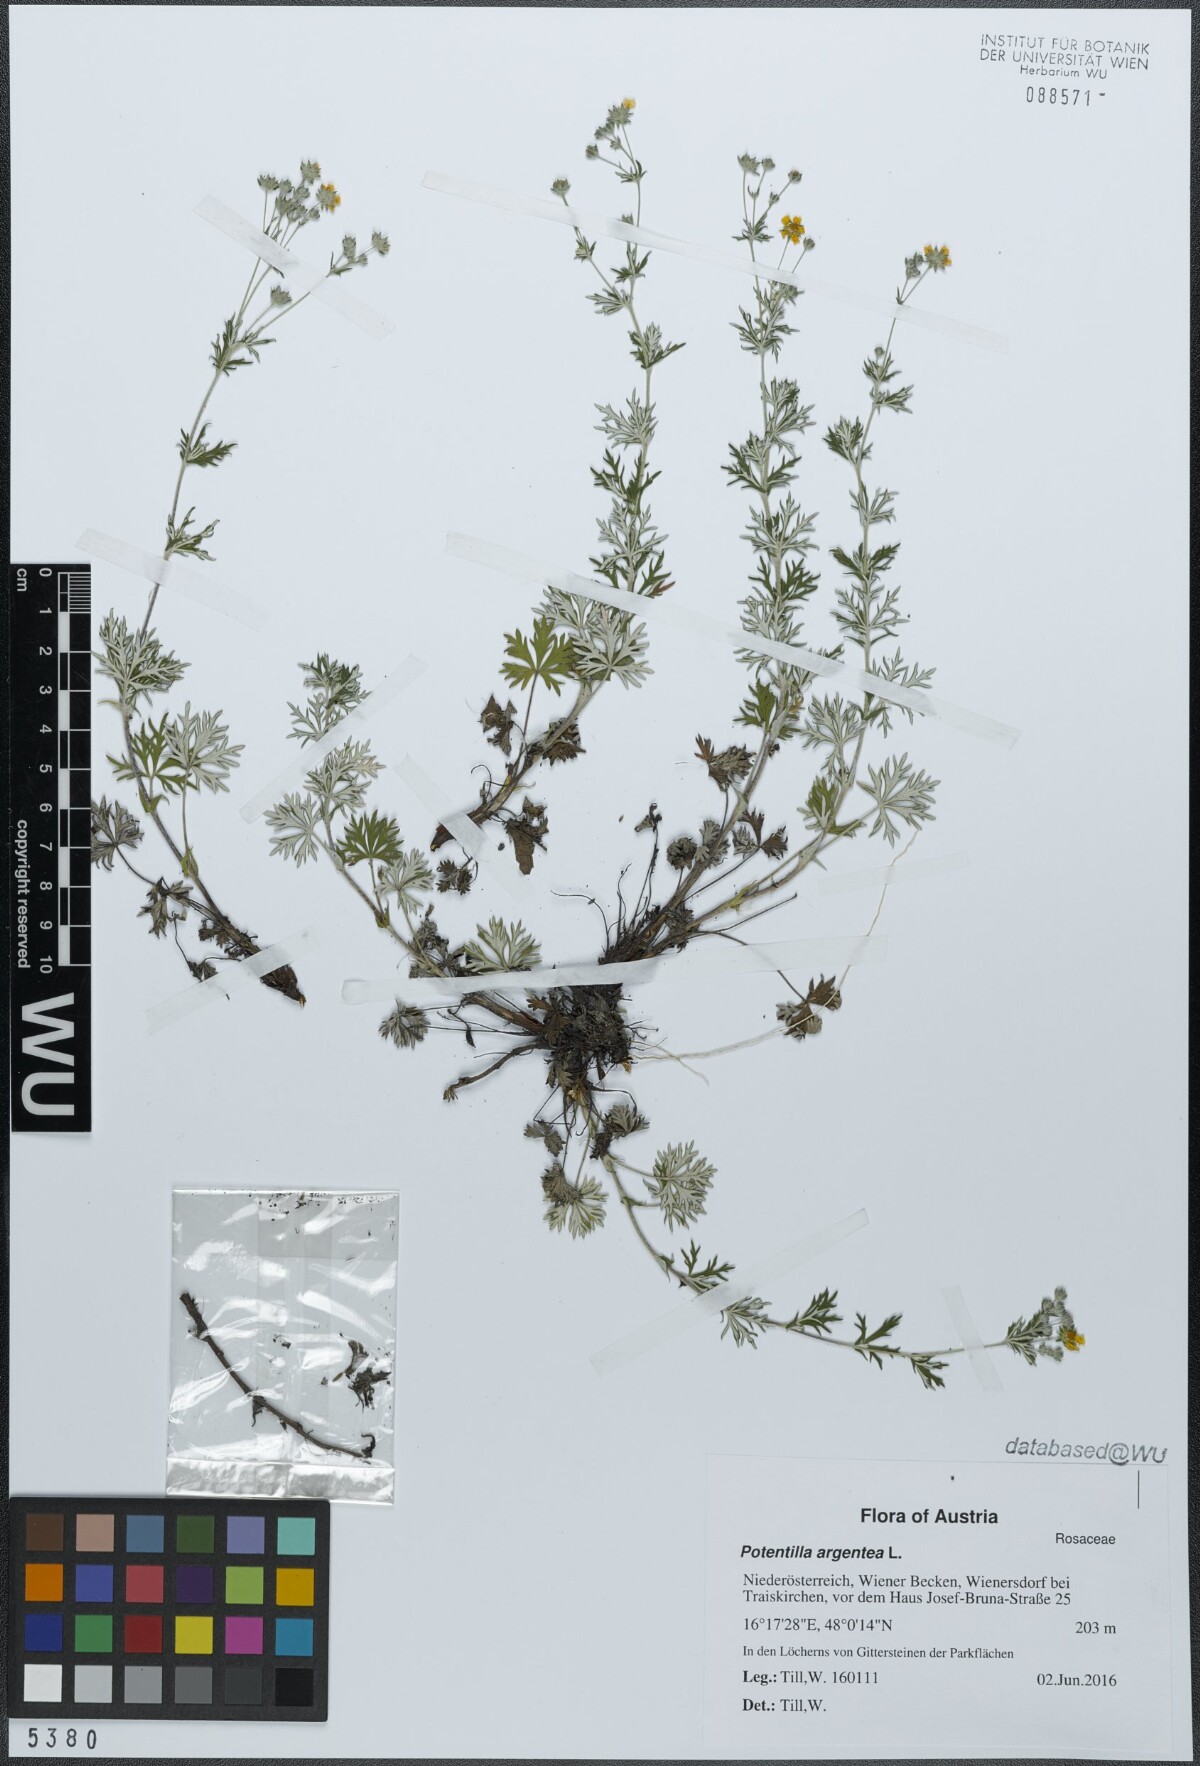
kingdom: Plantae
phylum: Tracheophyta
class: Magnoliopsida
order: Rosales
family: Rosaceae
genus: Potentilla
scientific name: Potentilla argentea
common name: Hoary cinquefoil
